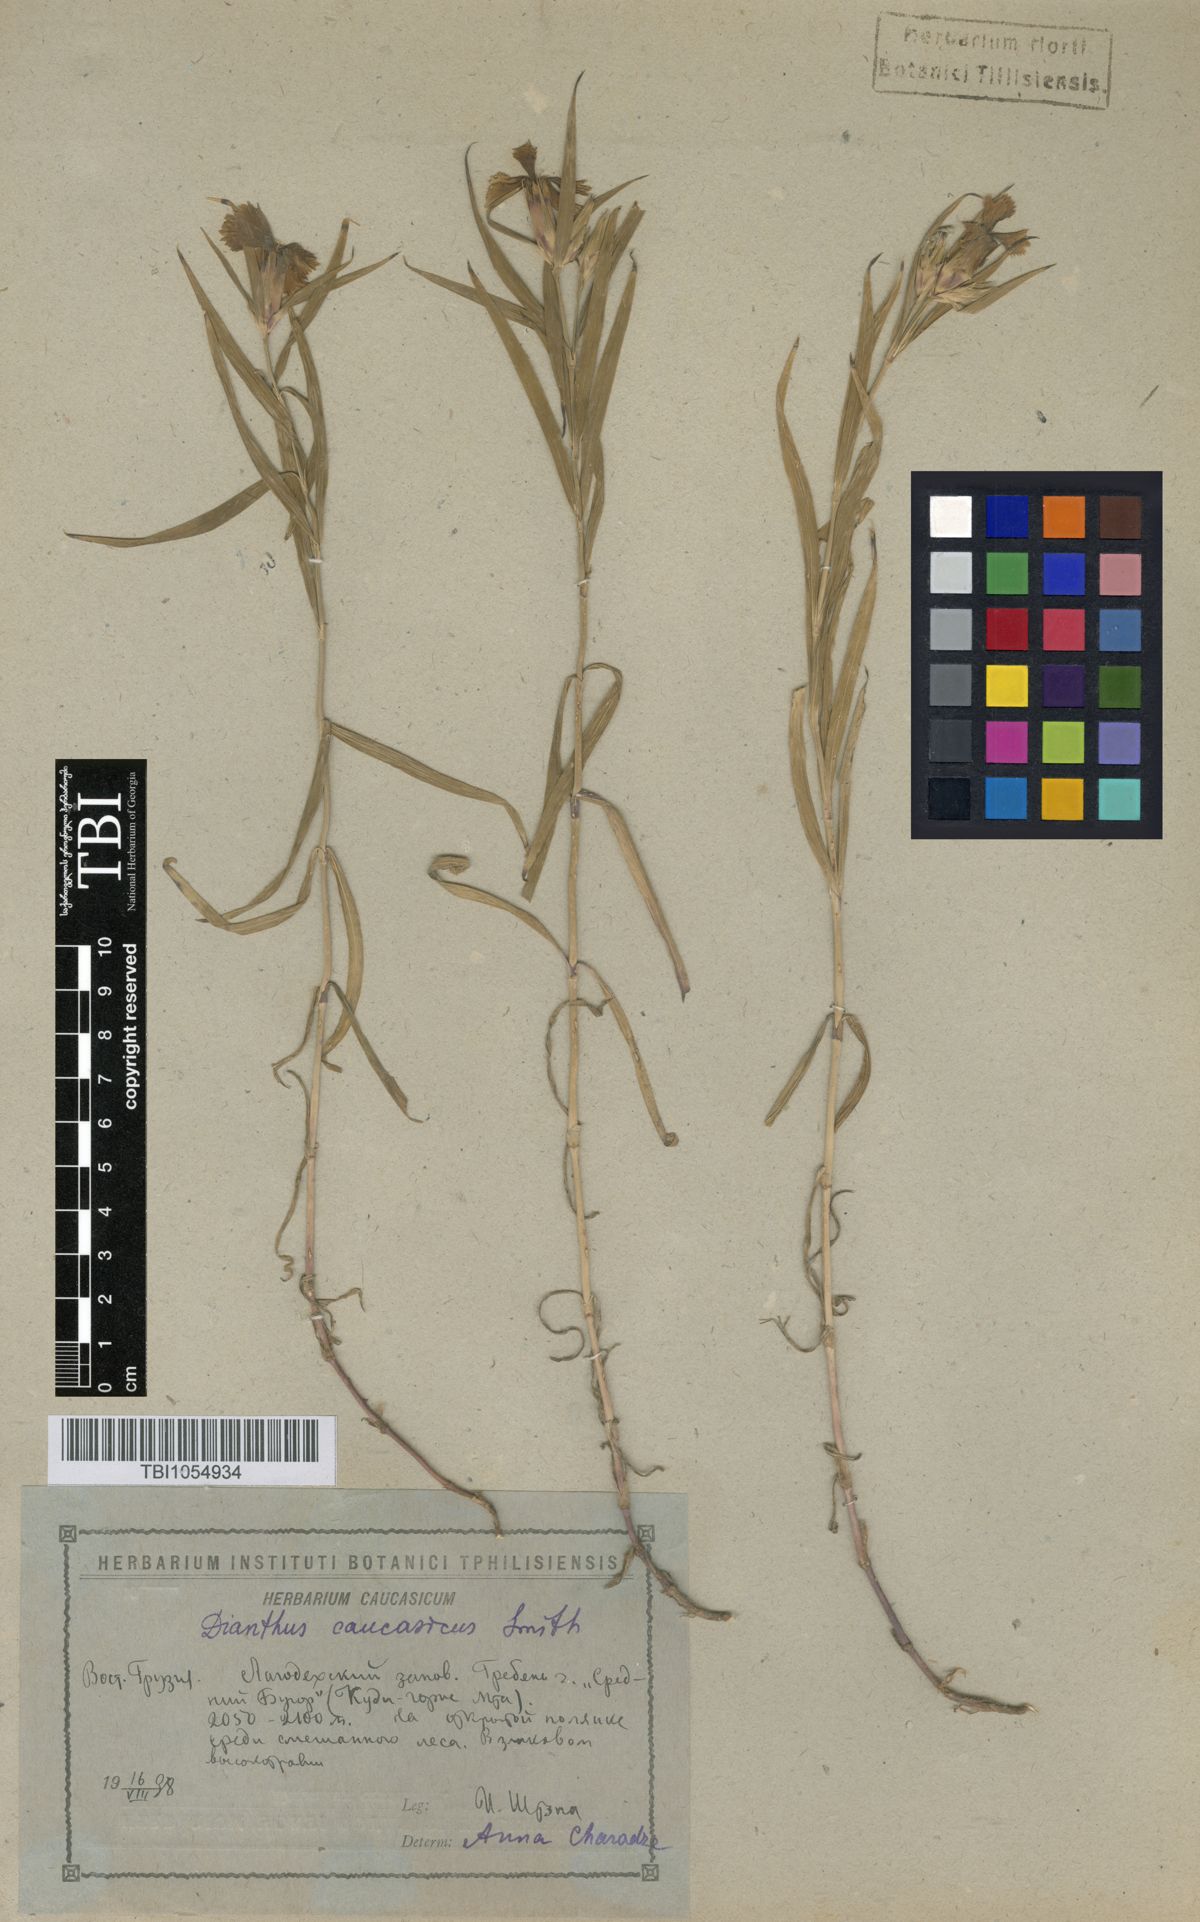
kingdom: Plantae
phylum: Tracheophyta
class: Magnoliopsida
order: Caryophyllales
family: Caryophyllaceae
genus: Dianthus
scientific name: Dianthus caucaseus
